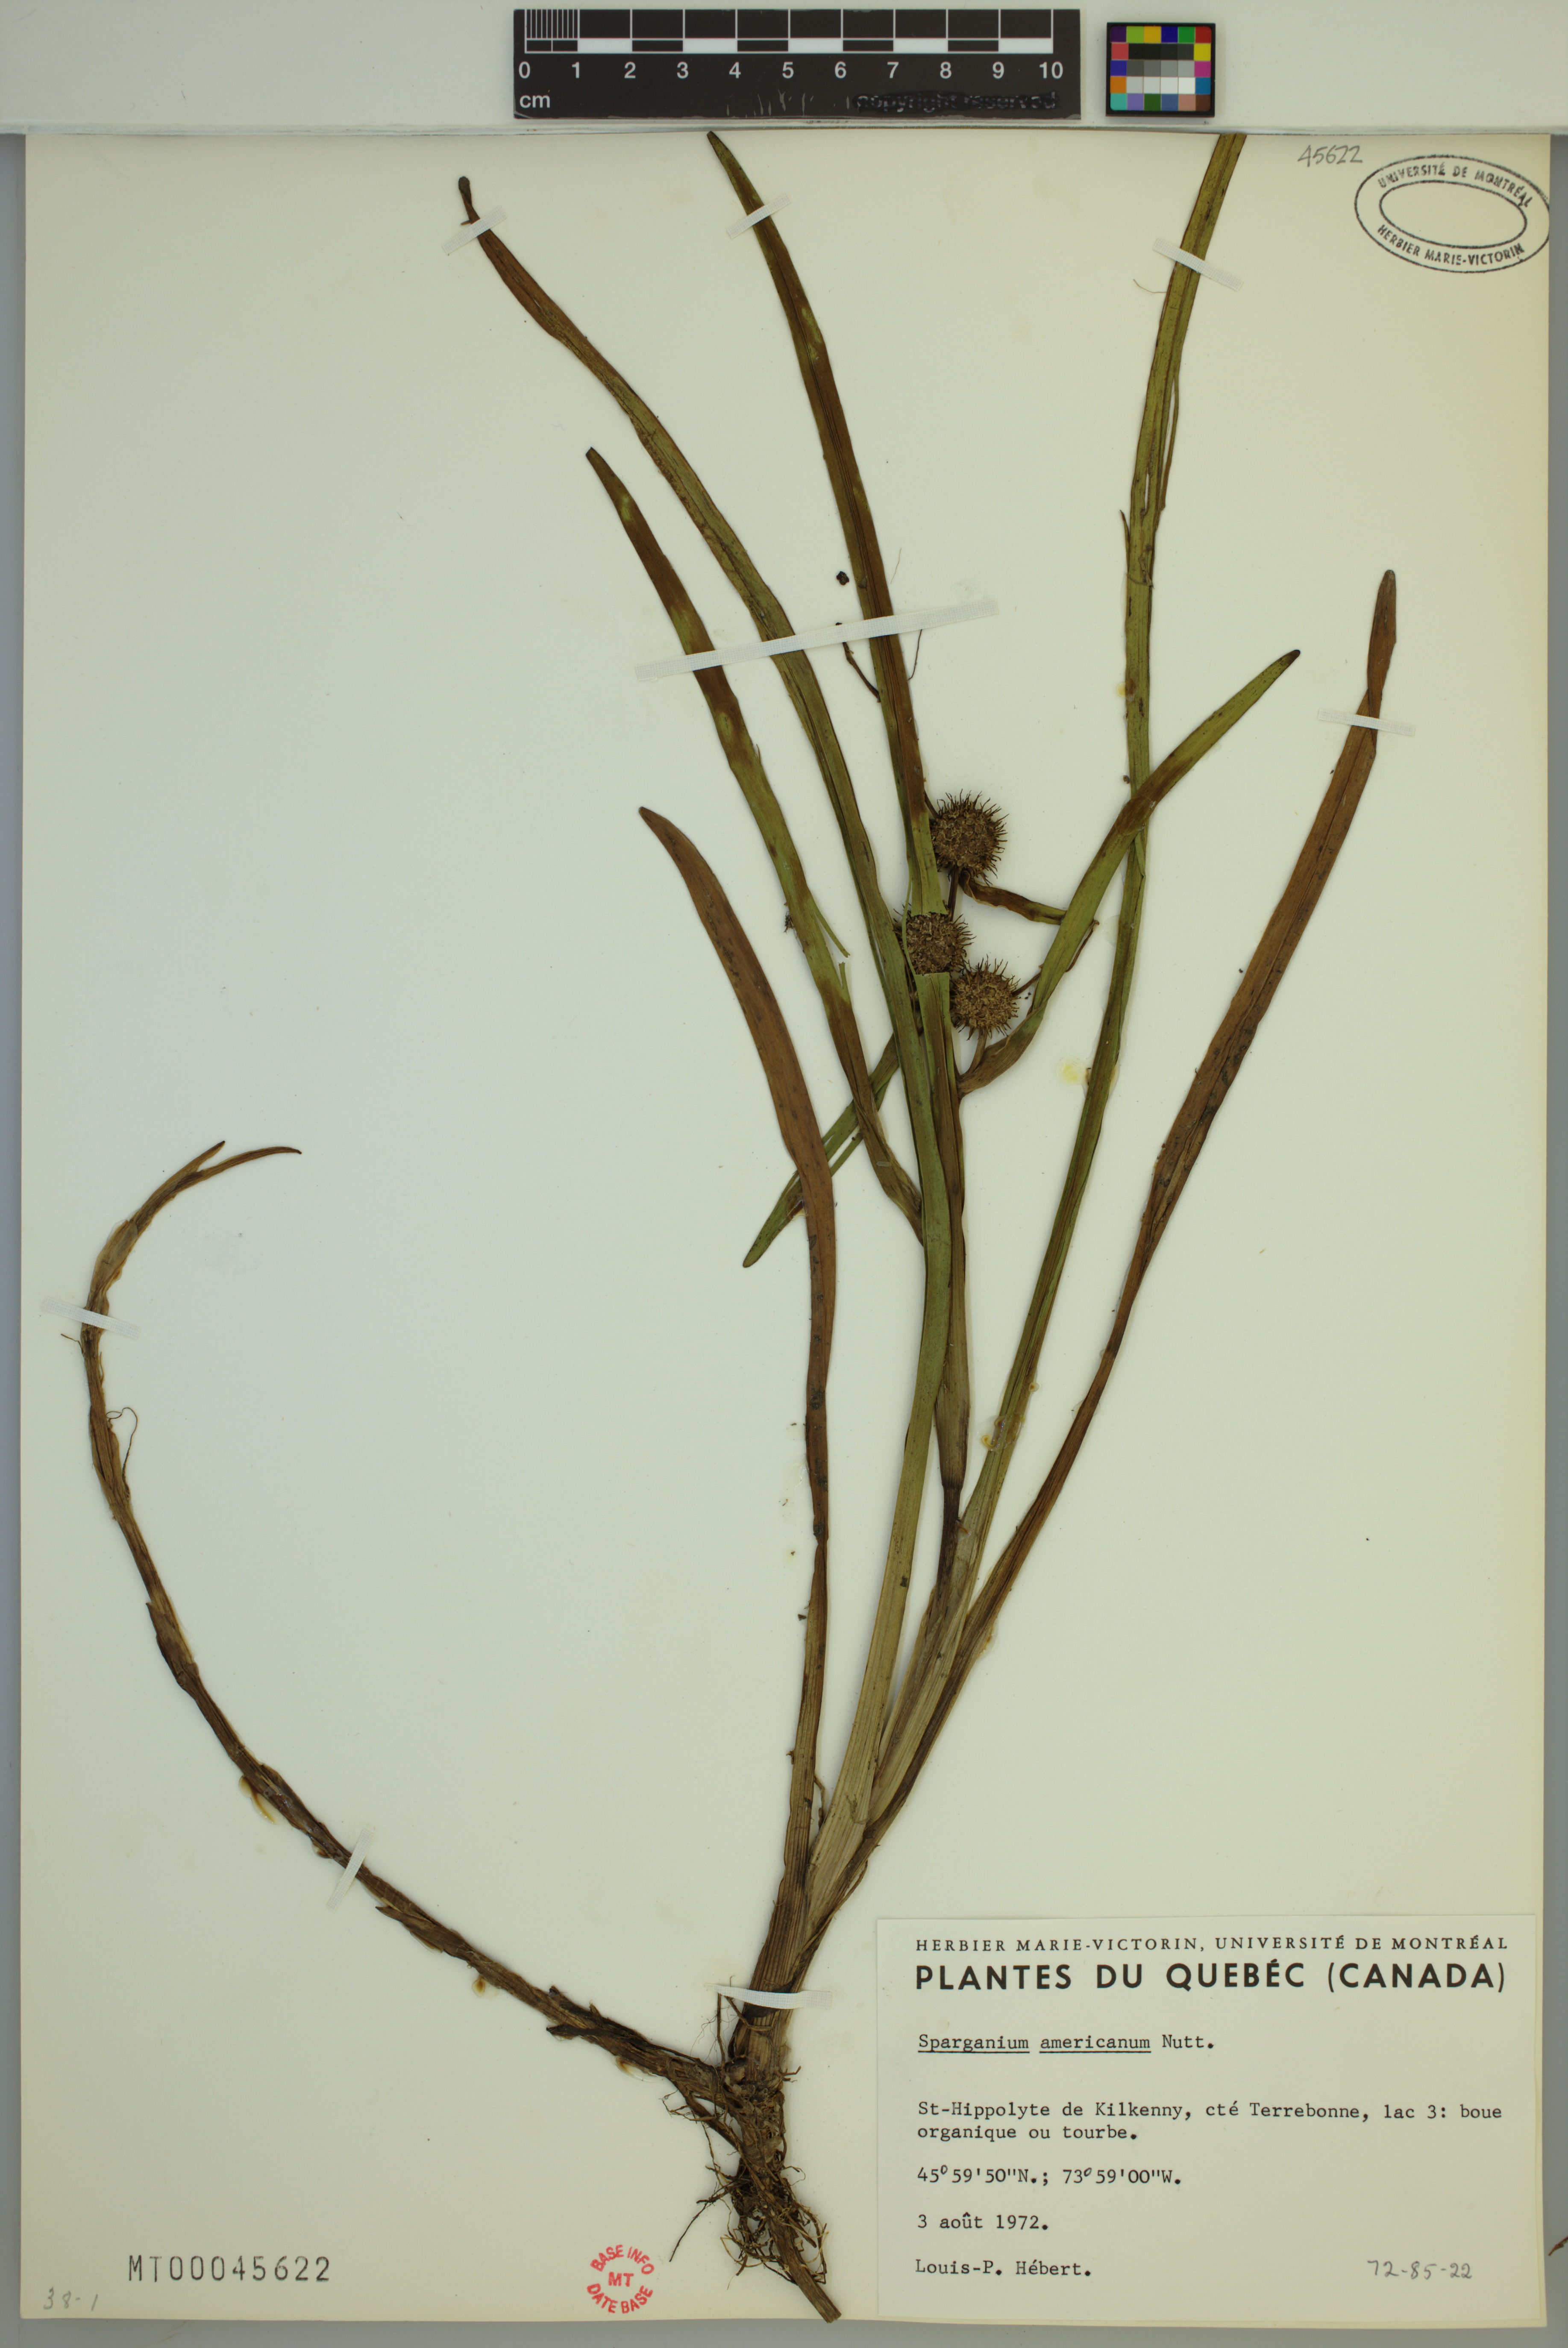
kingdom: Plantae
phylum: Tracheophyta
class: Liliopsida
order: Poales
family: Typhaceae
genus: Sparganium
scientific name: Sparganium americanum
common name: American burreed
